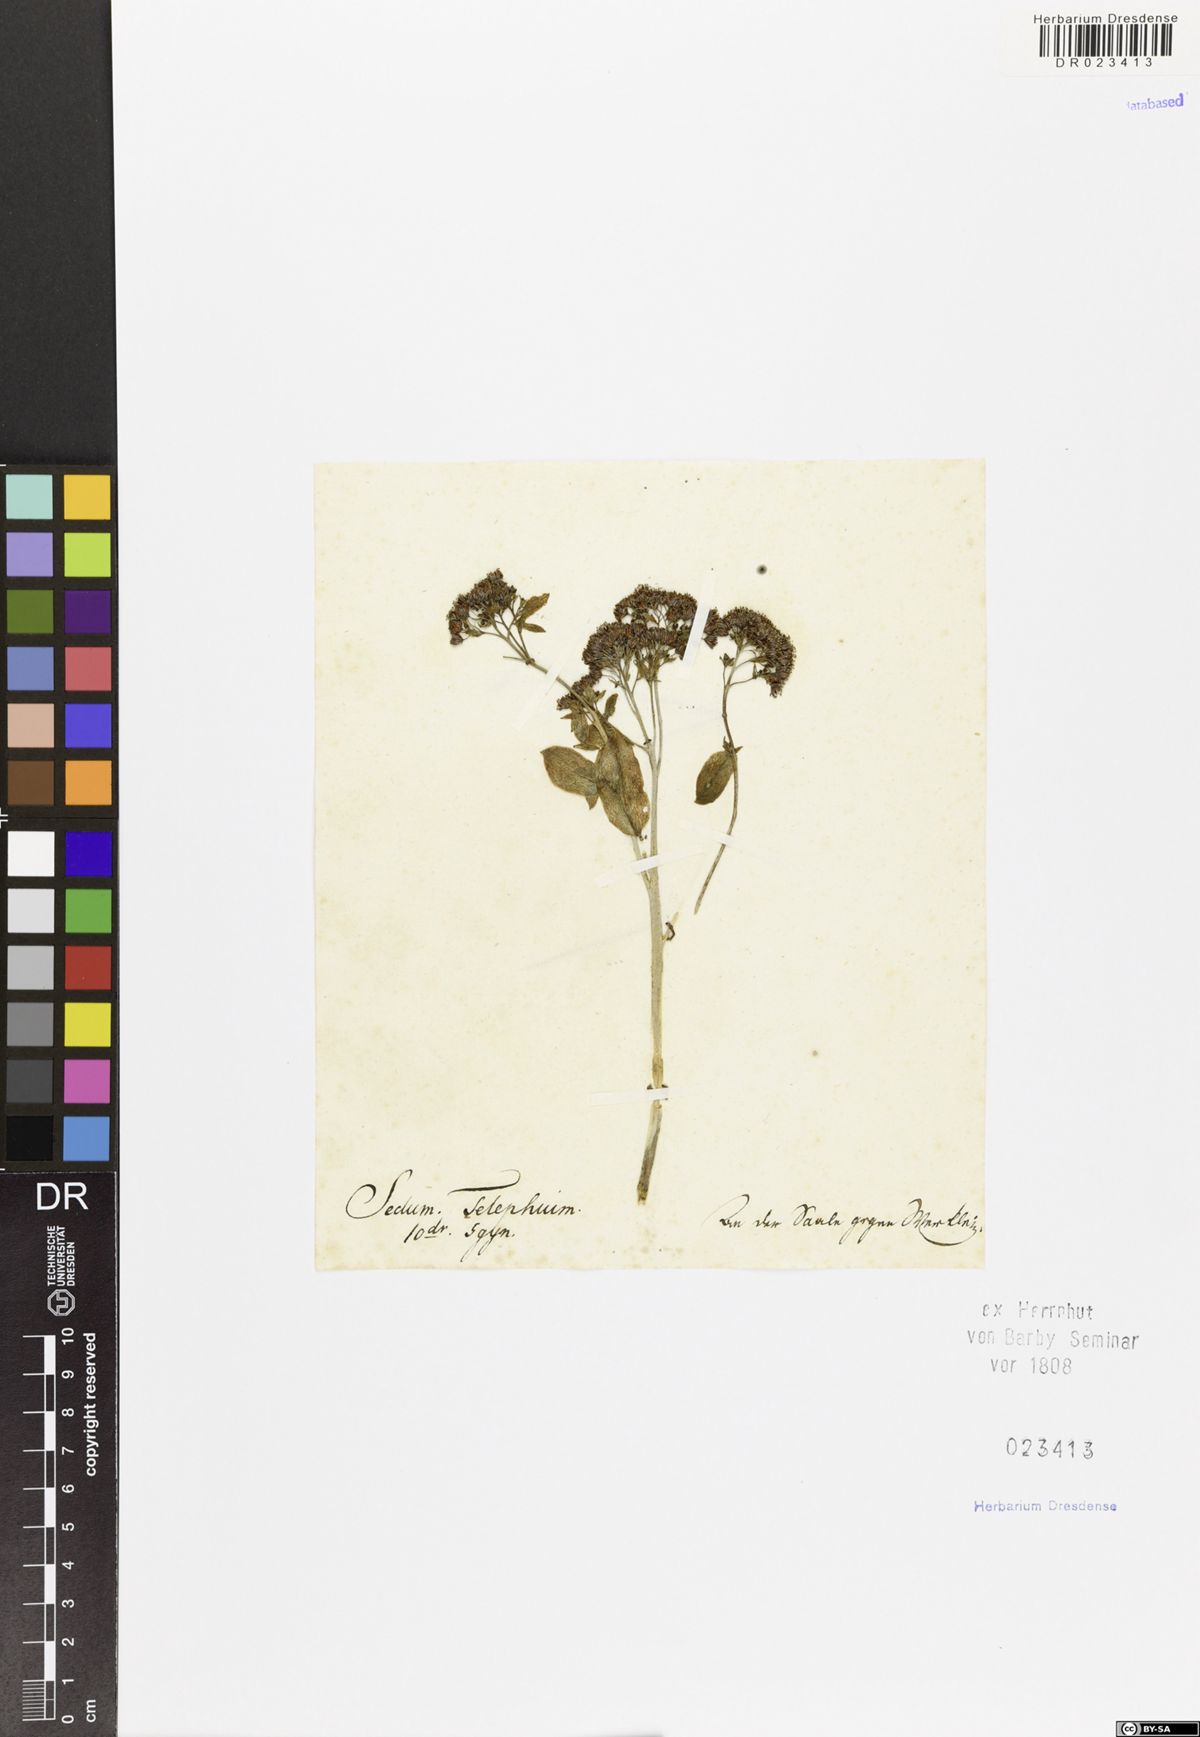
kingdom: Plantae
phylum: Tracheophyta
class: Magnoliopsida
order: Saxifragales
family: Crassulaceae
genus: Hylotelephium
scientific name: Hylotelephium maximum
